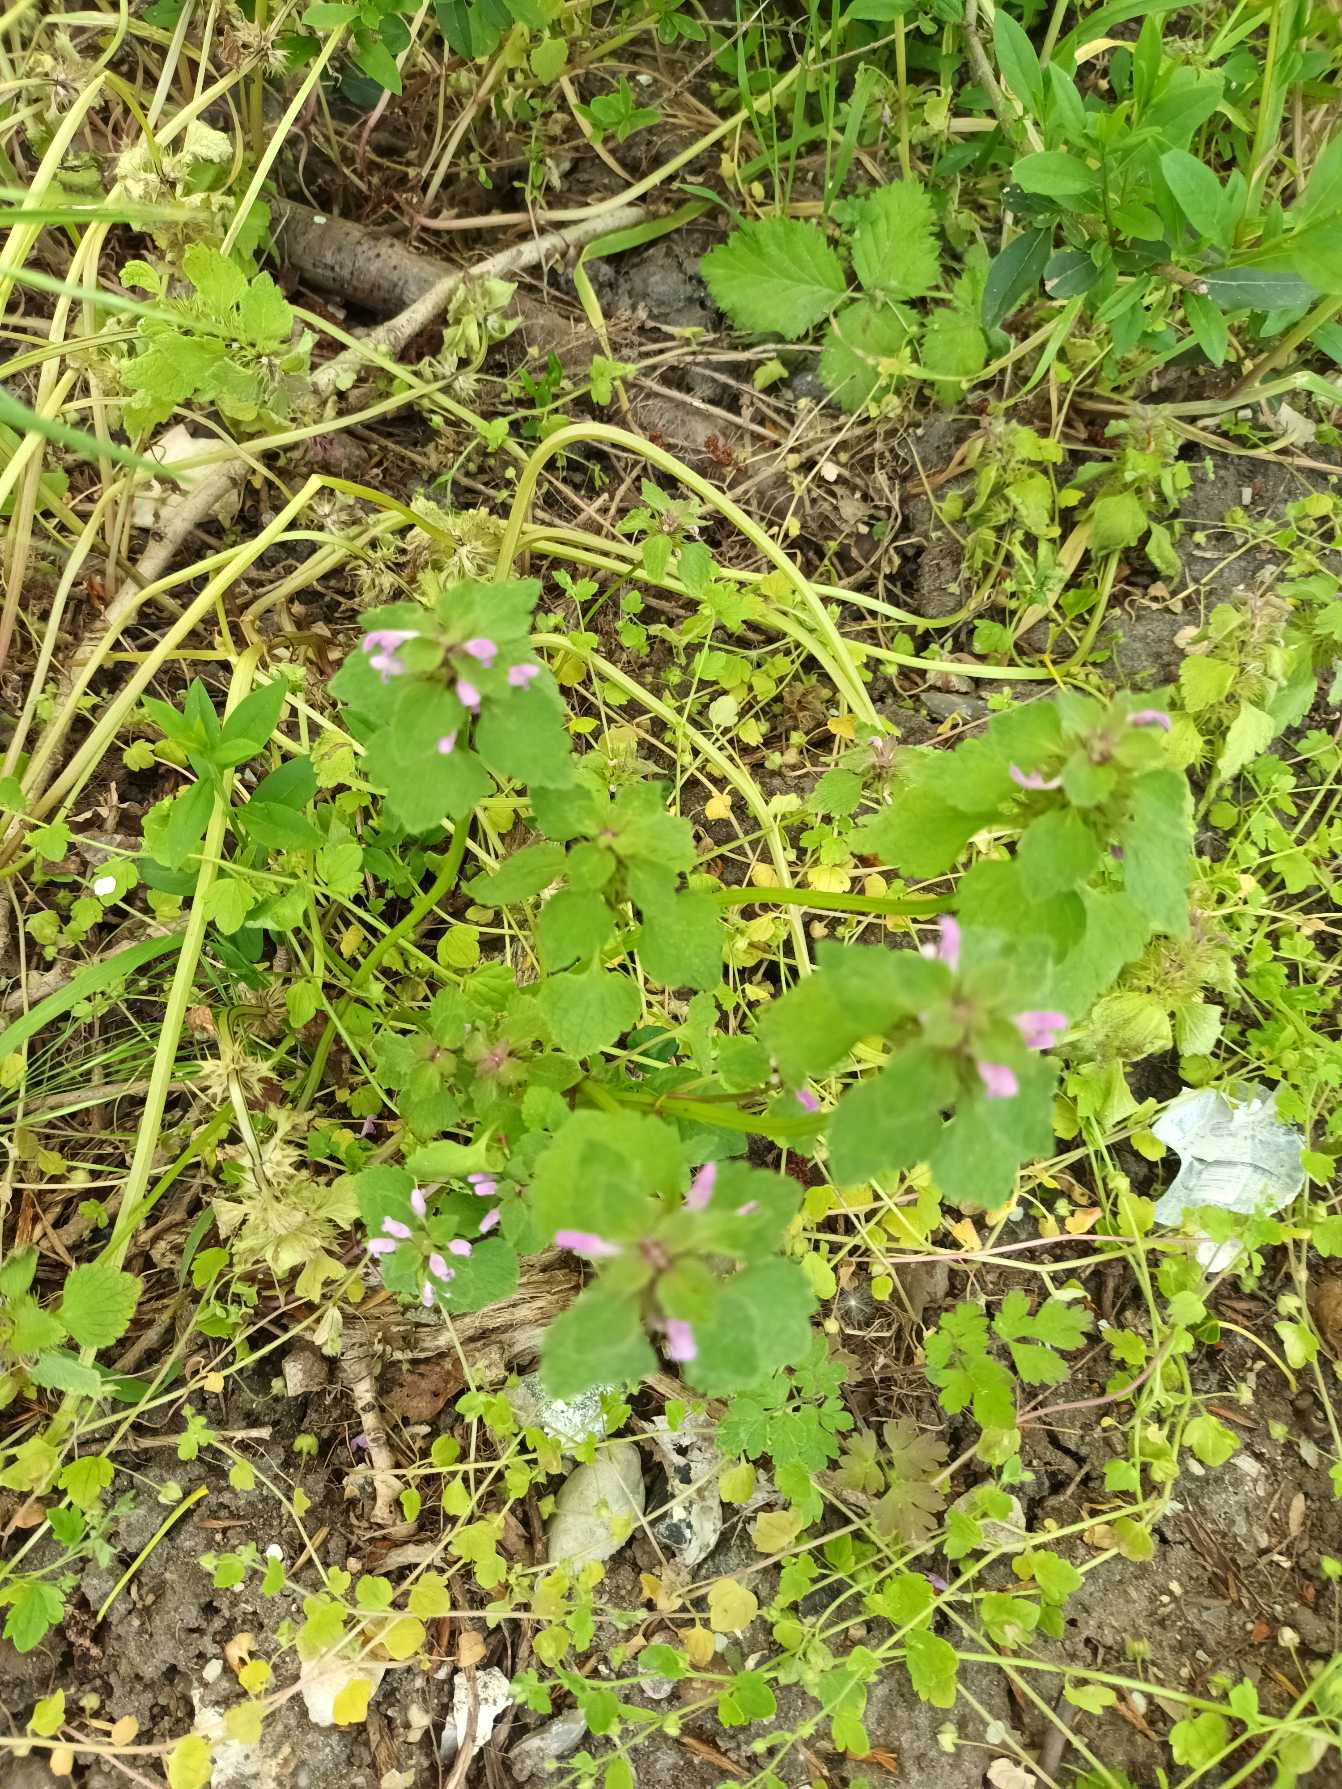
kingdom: Plantae
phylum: Tracheophyta
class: Magnoliopsida
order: Lamiales
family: Lamiaceae
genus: Lamium
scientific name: Lamium purpureum
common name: Rød tvetand
